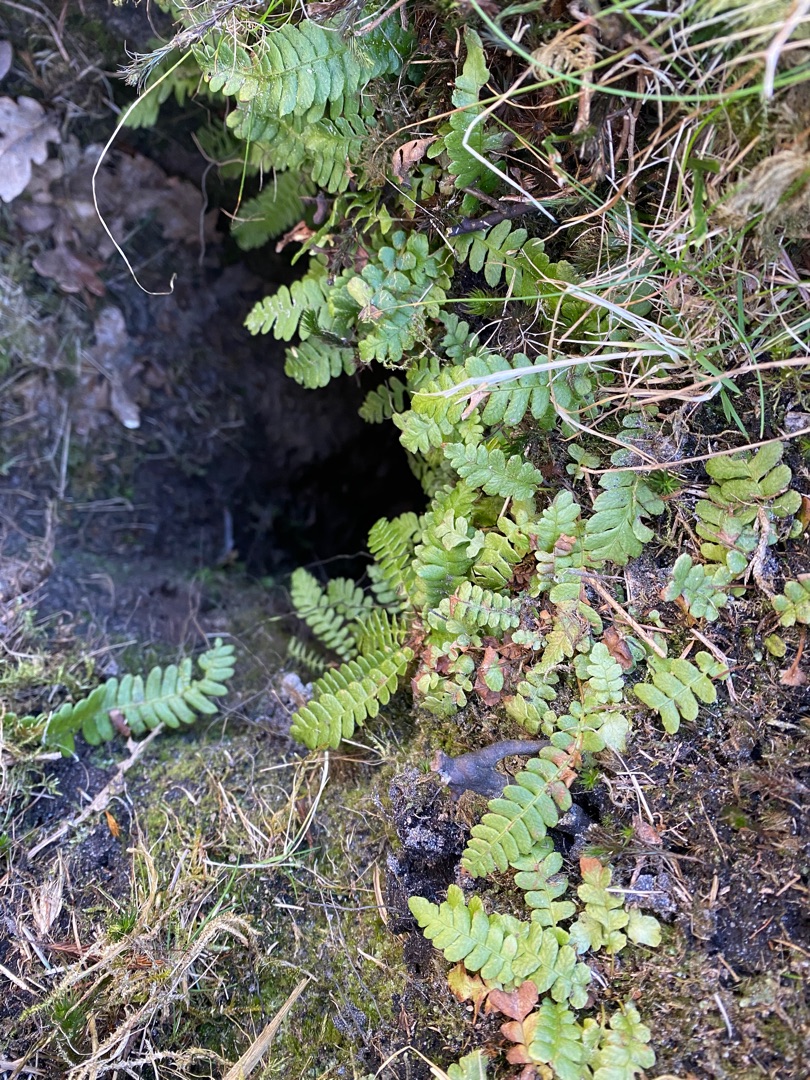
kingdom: Plantae
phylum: Tracheophyta
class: Polypodiopsida
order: Polypodiales
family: Blechnaceae
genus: Struthiopteris
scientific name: Struthiopteris spicant
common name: Kambregne
